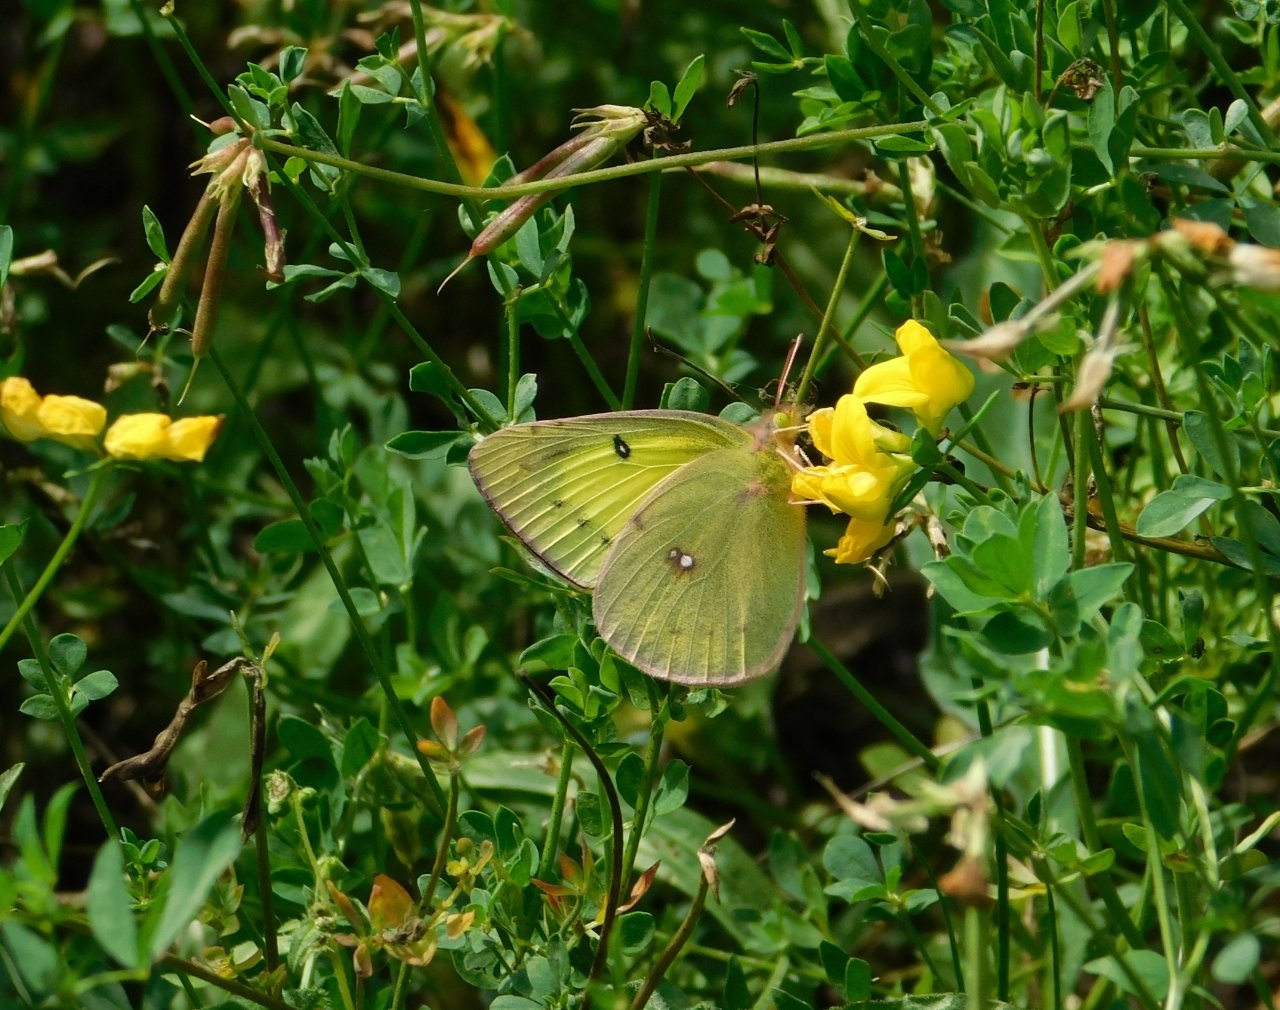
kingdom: Animalia
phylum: Arthropoda
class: Insecta
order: Lepidoptera
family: Pieridae
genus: Colias
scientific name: Colias philodice
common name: Clouded Sulphur
